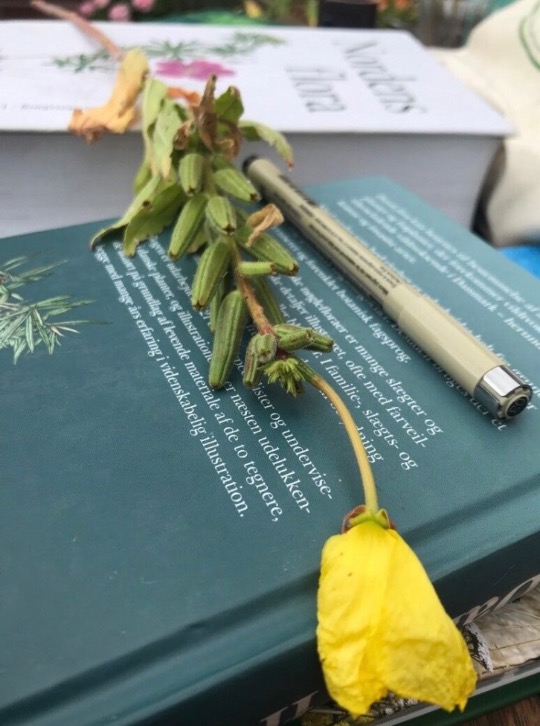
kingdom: Plantae
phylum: Tracheophyta
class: Magnoliopsida
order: Myrtales
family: Onagraceae
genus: Oenothera
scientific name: Oenothera glazioviana
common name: Kæmpe-natlys
